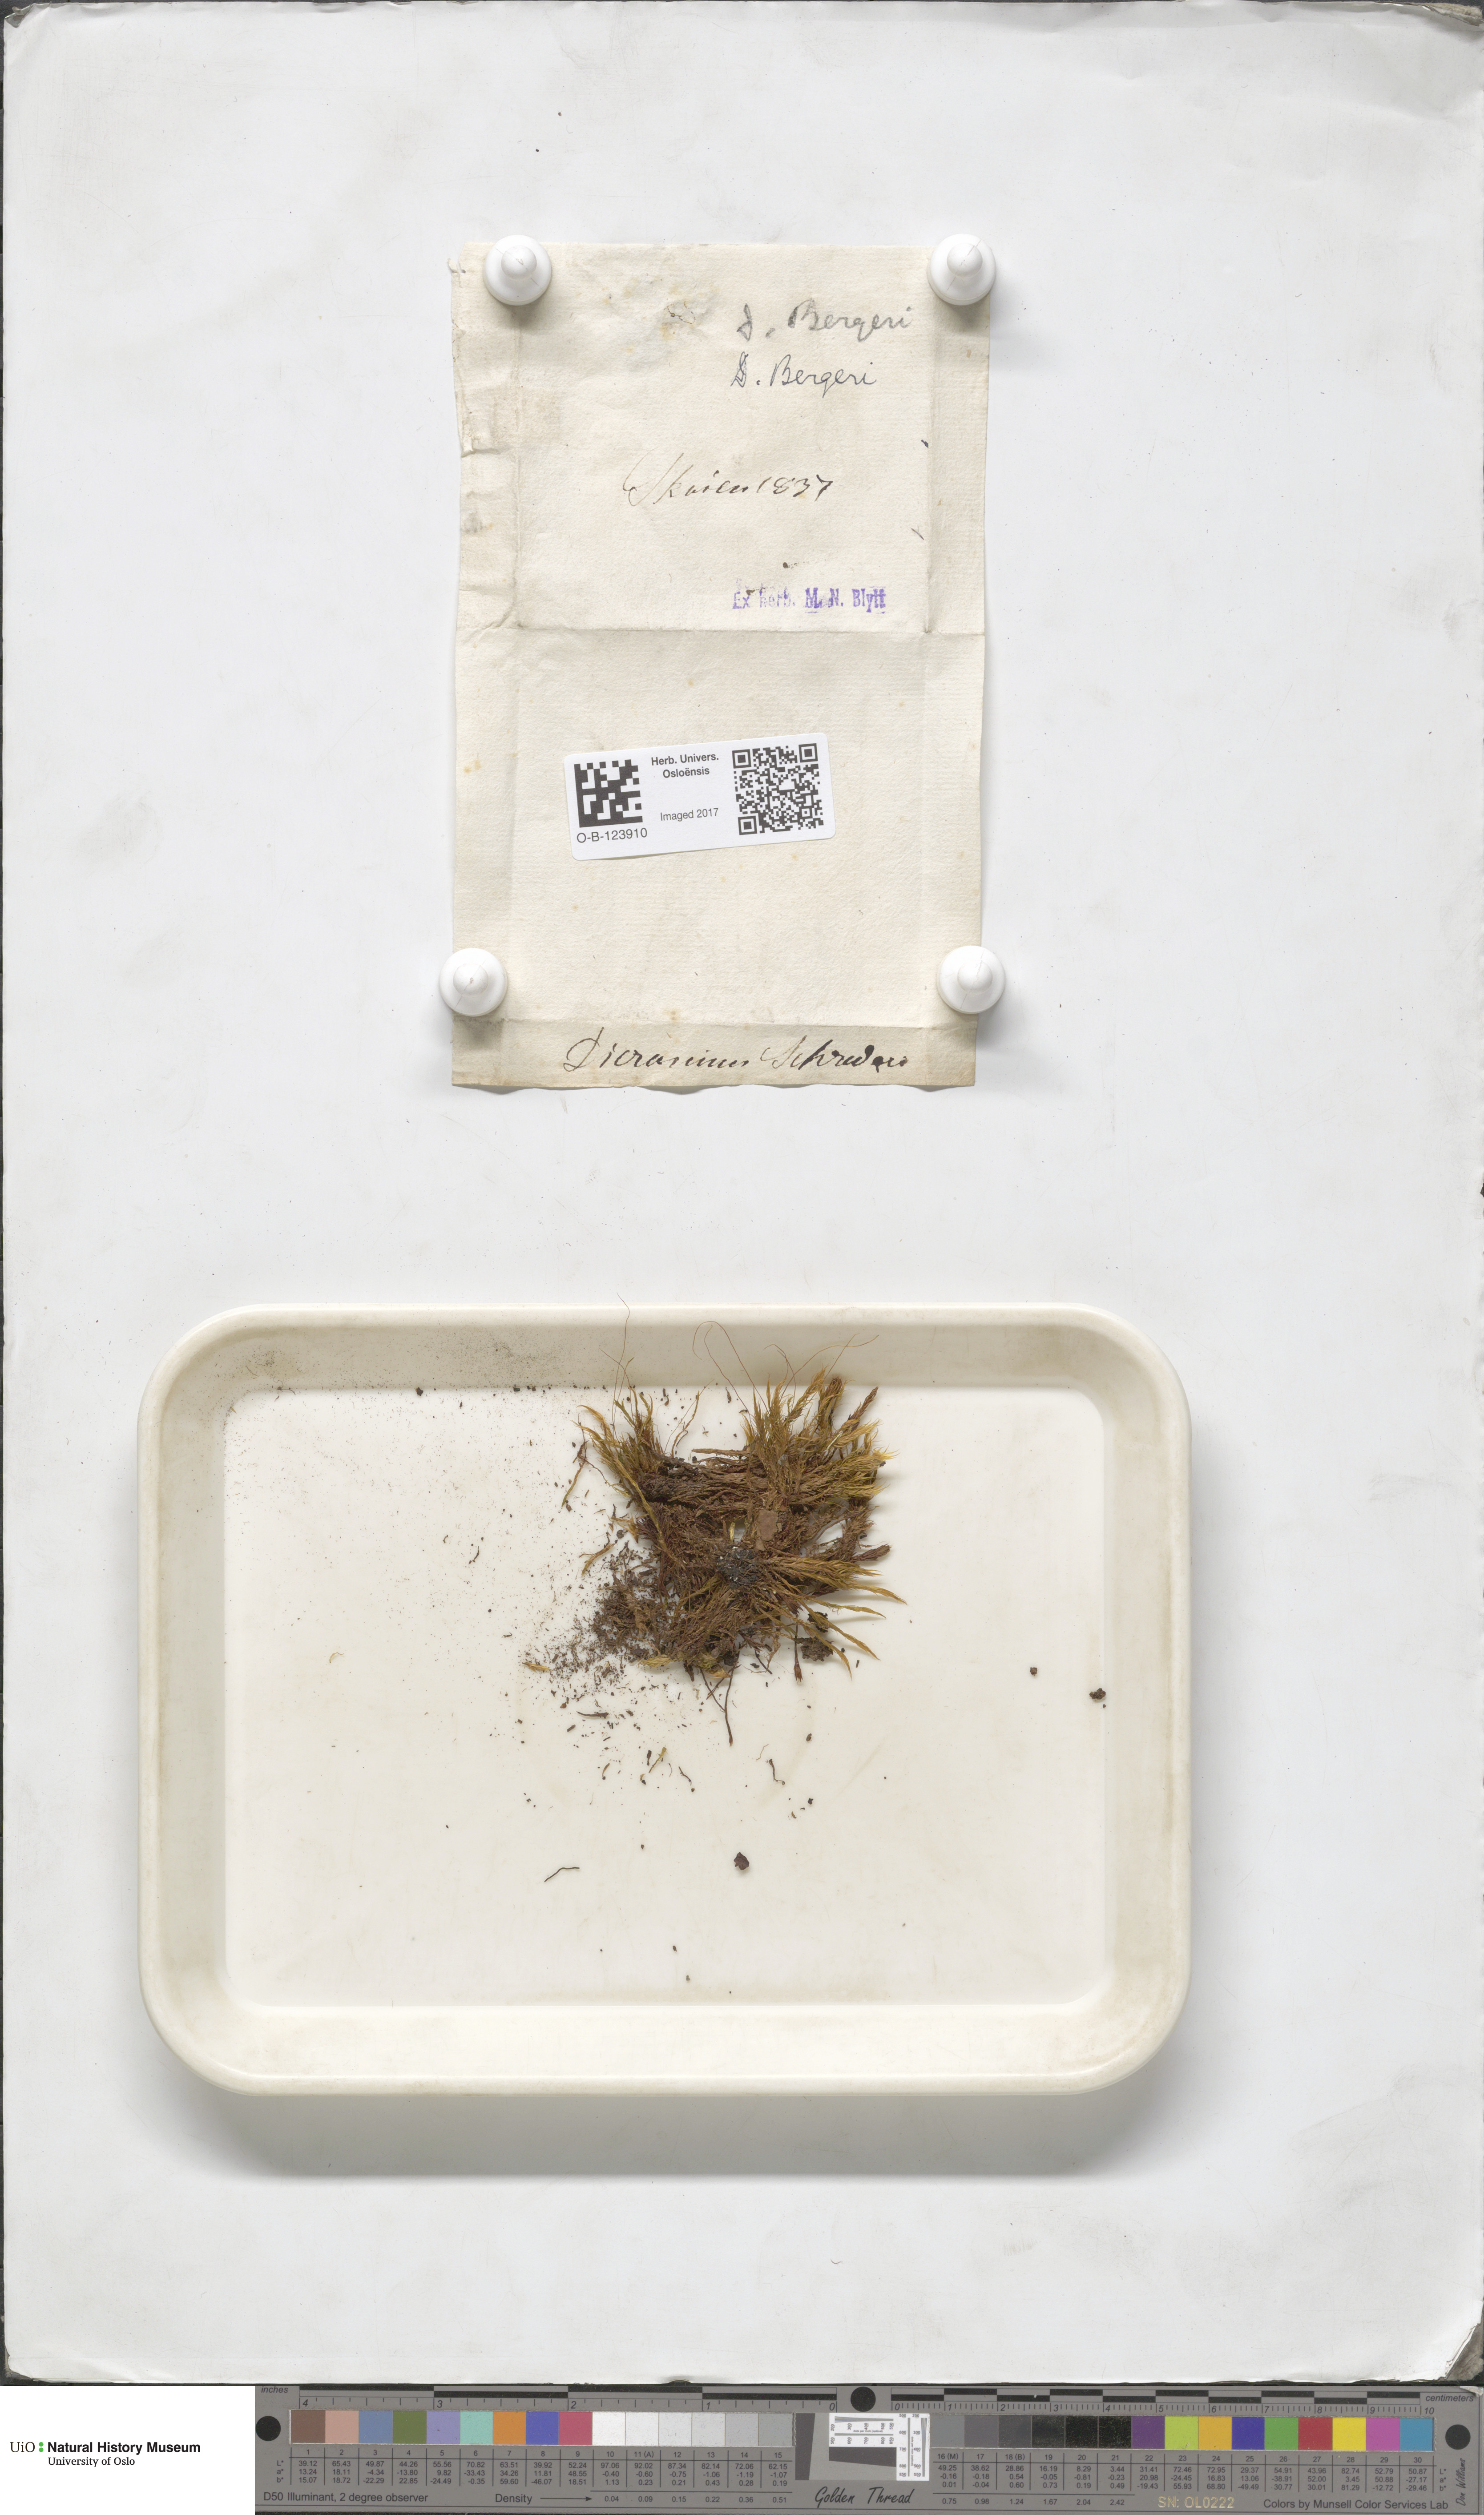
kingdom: Plantae
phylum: Bryophyta
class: Bryopsida
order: Dicranales
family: Dicranaceae
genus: Dicranum
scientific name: Dicranum undulatum
